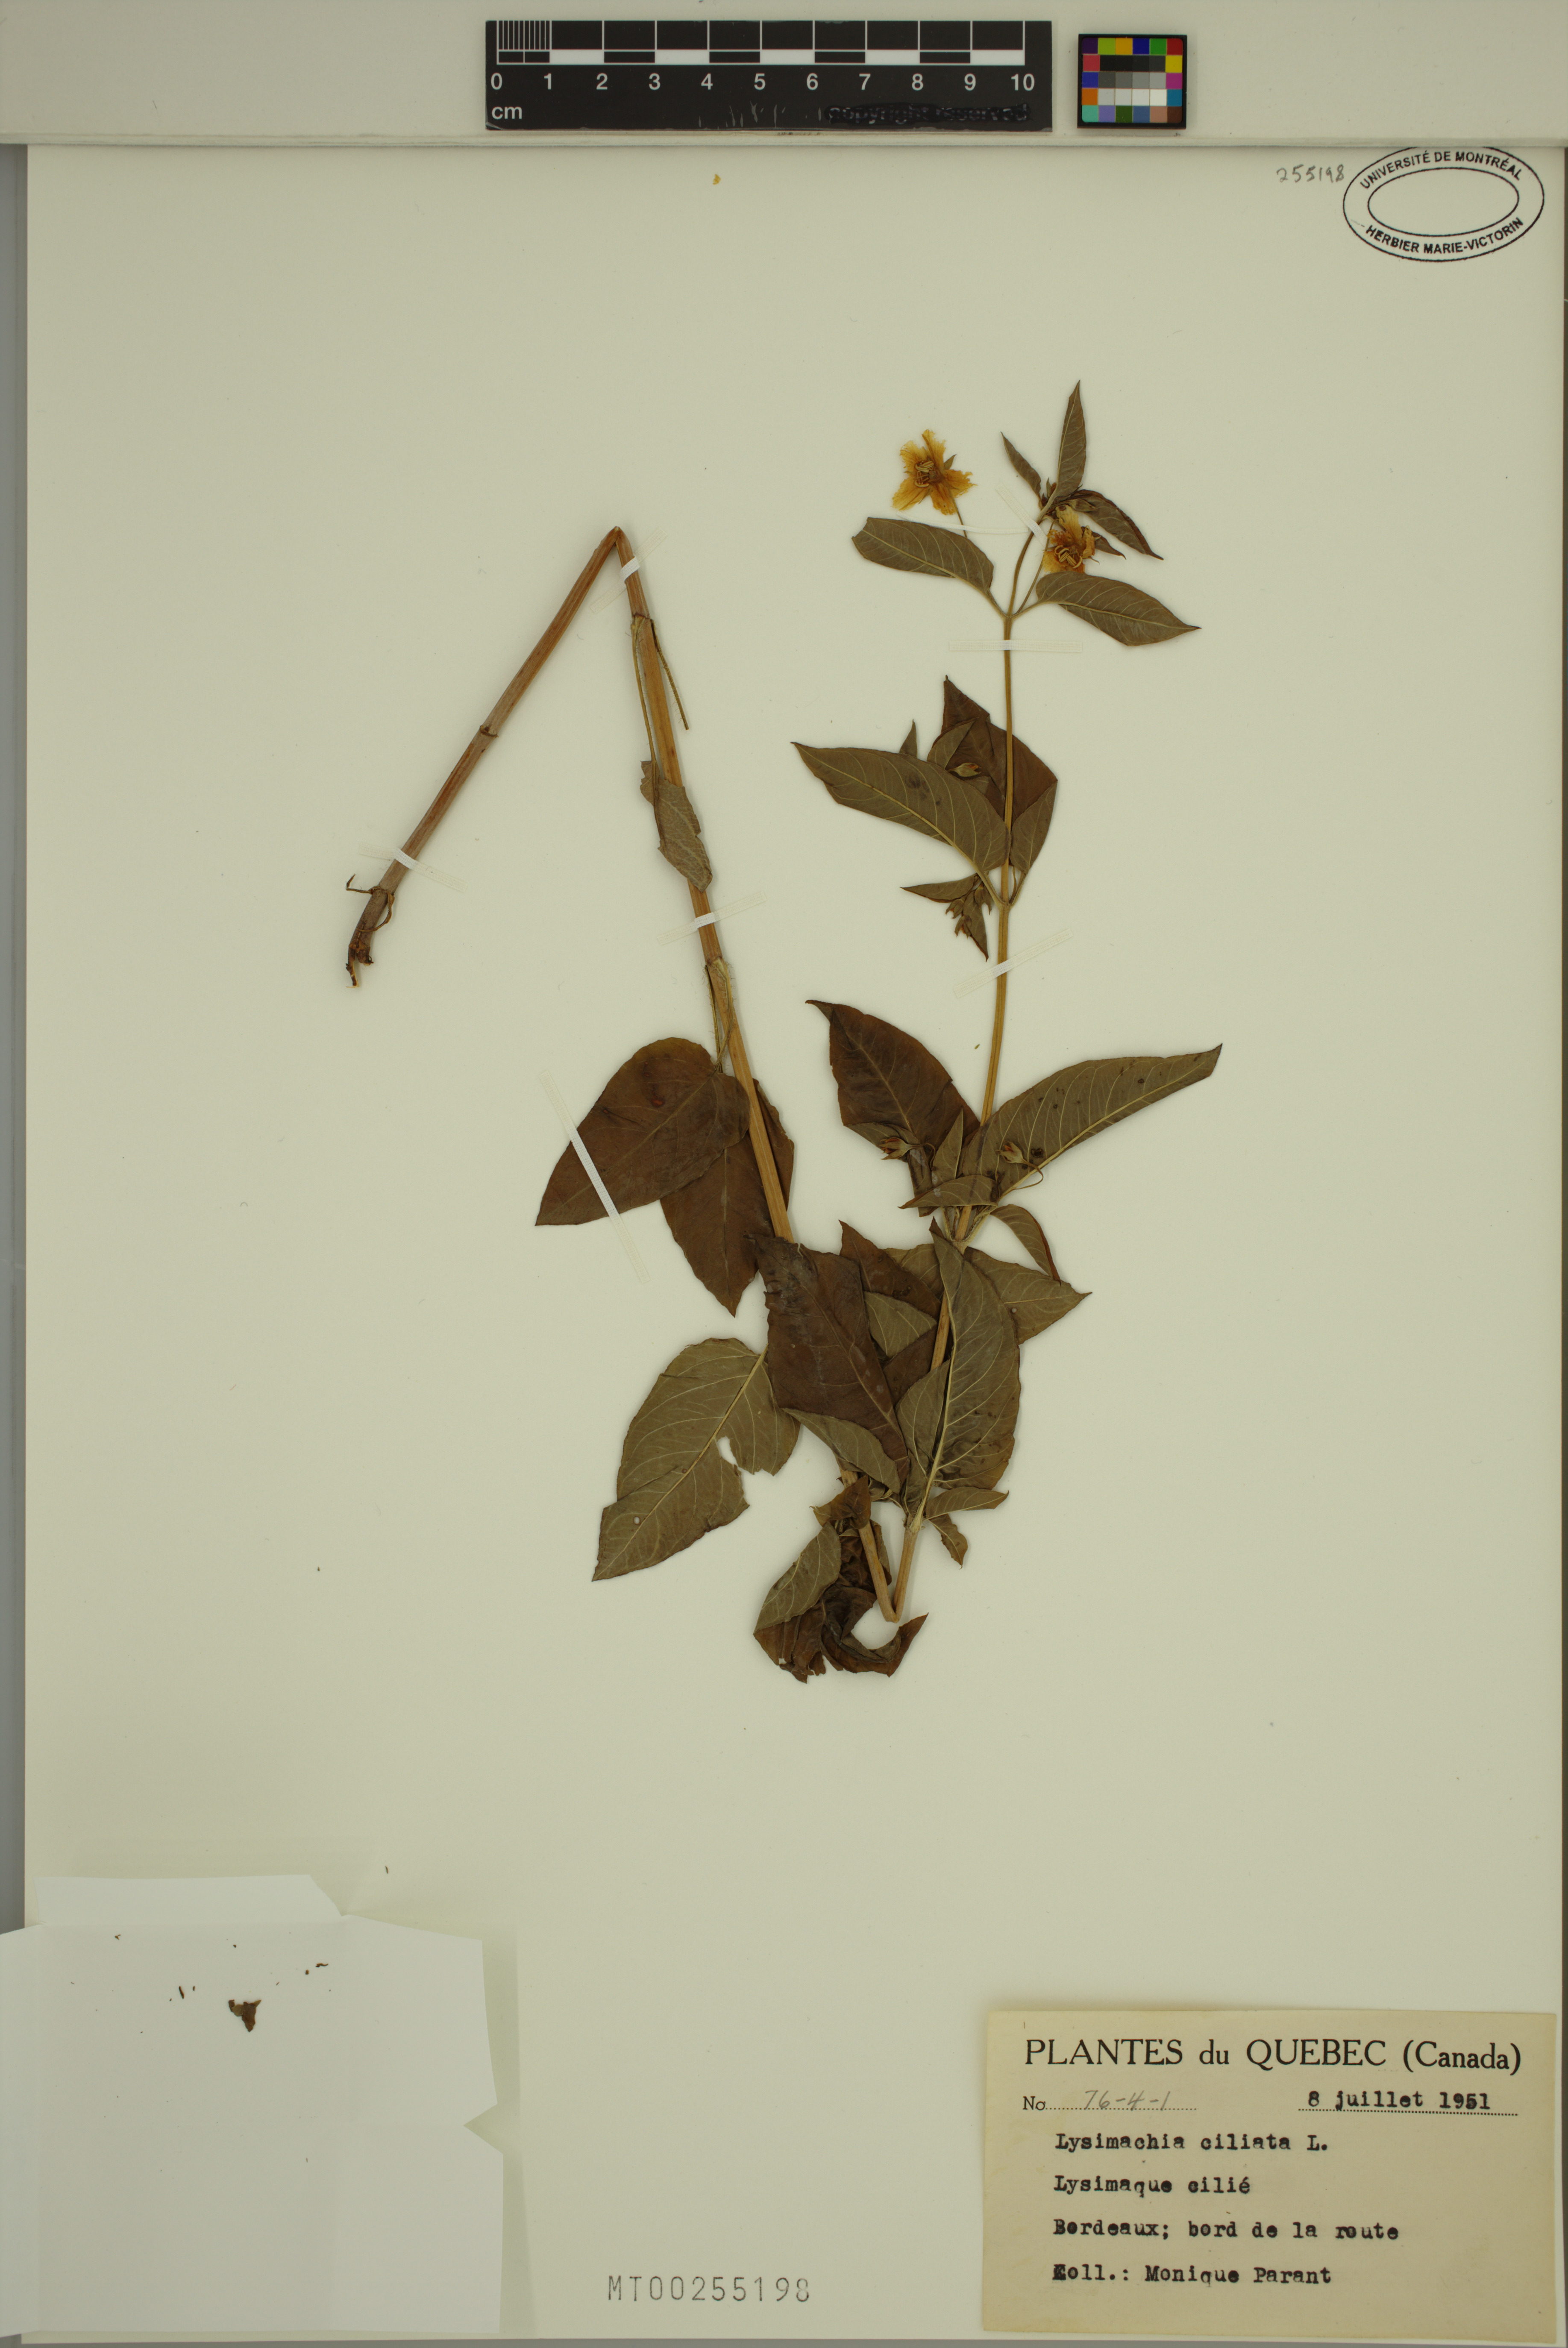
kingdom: Plantae
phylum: Tracheophyta
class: Magnoliopsida
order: Ericales
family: Primulaceae
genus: Lysimachia
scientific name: Lysimachia ciliata
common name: Fringed loosestrife
